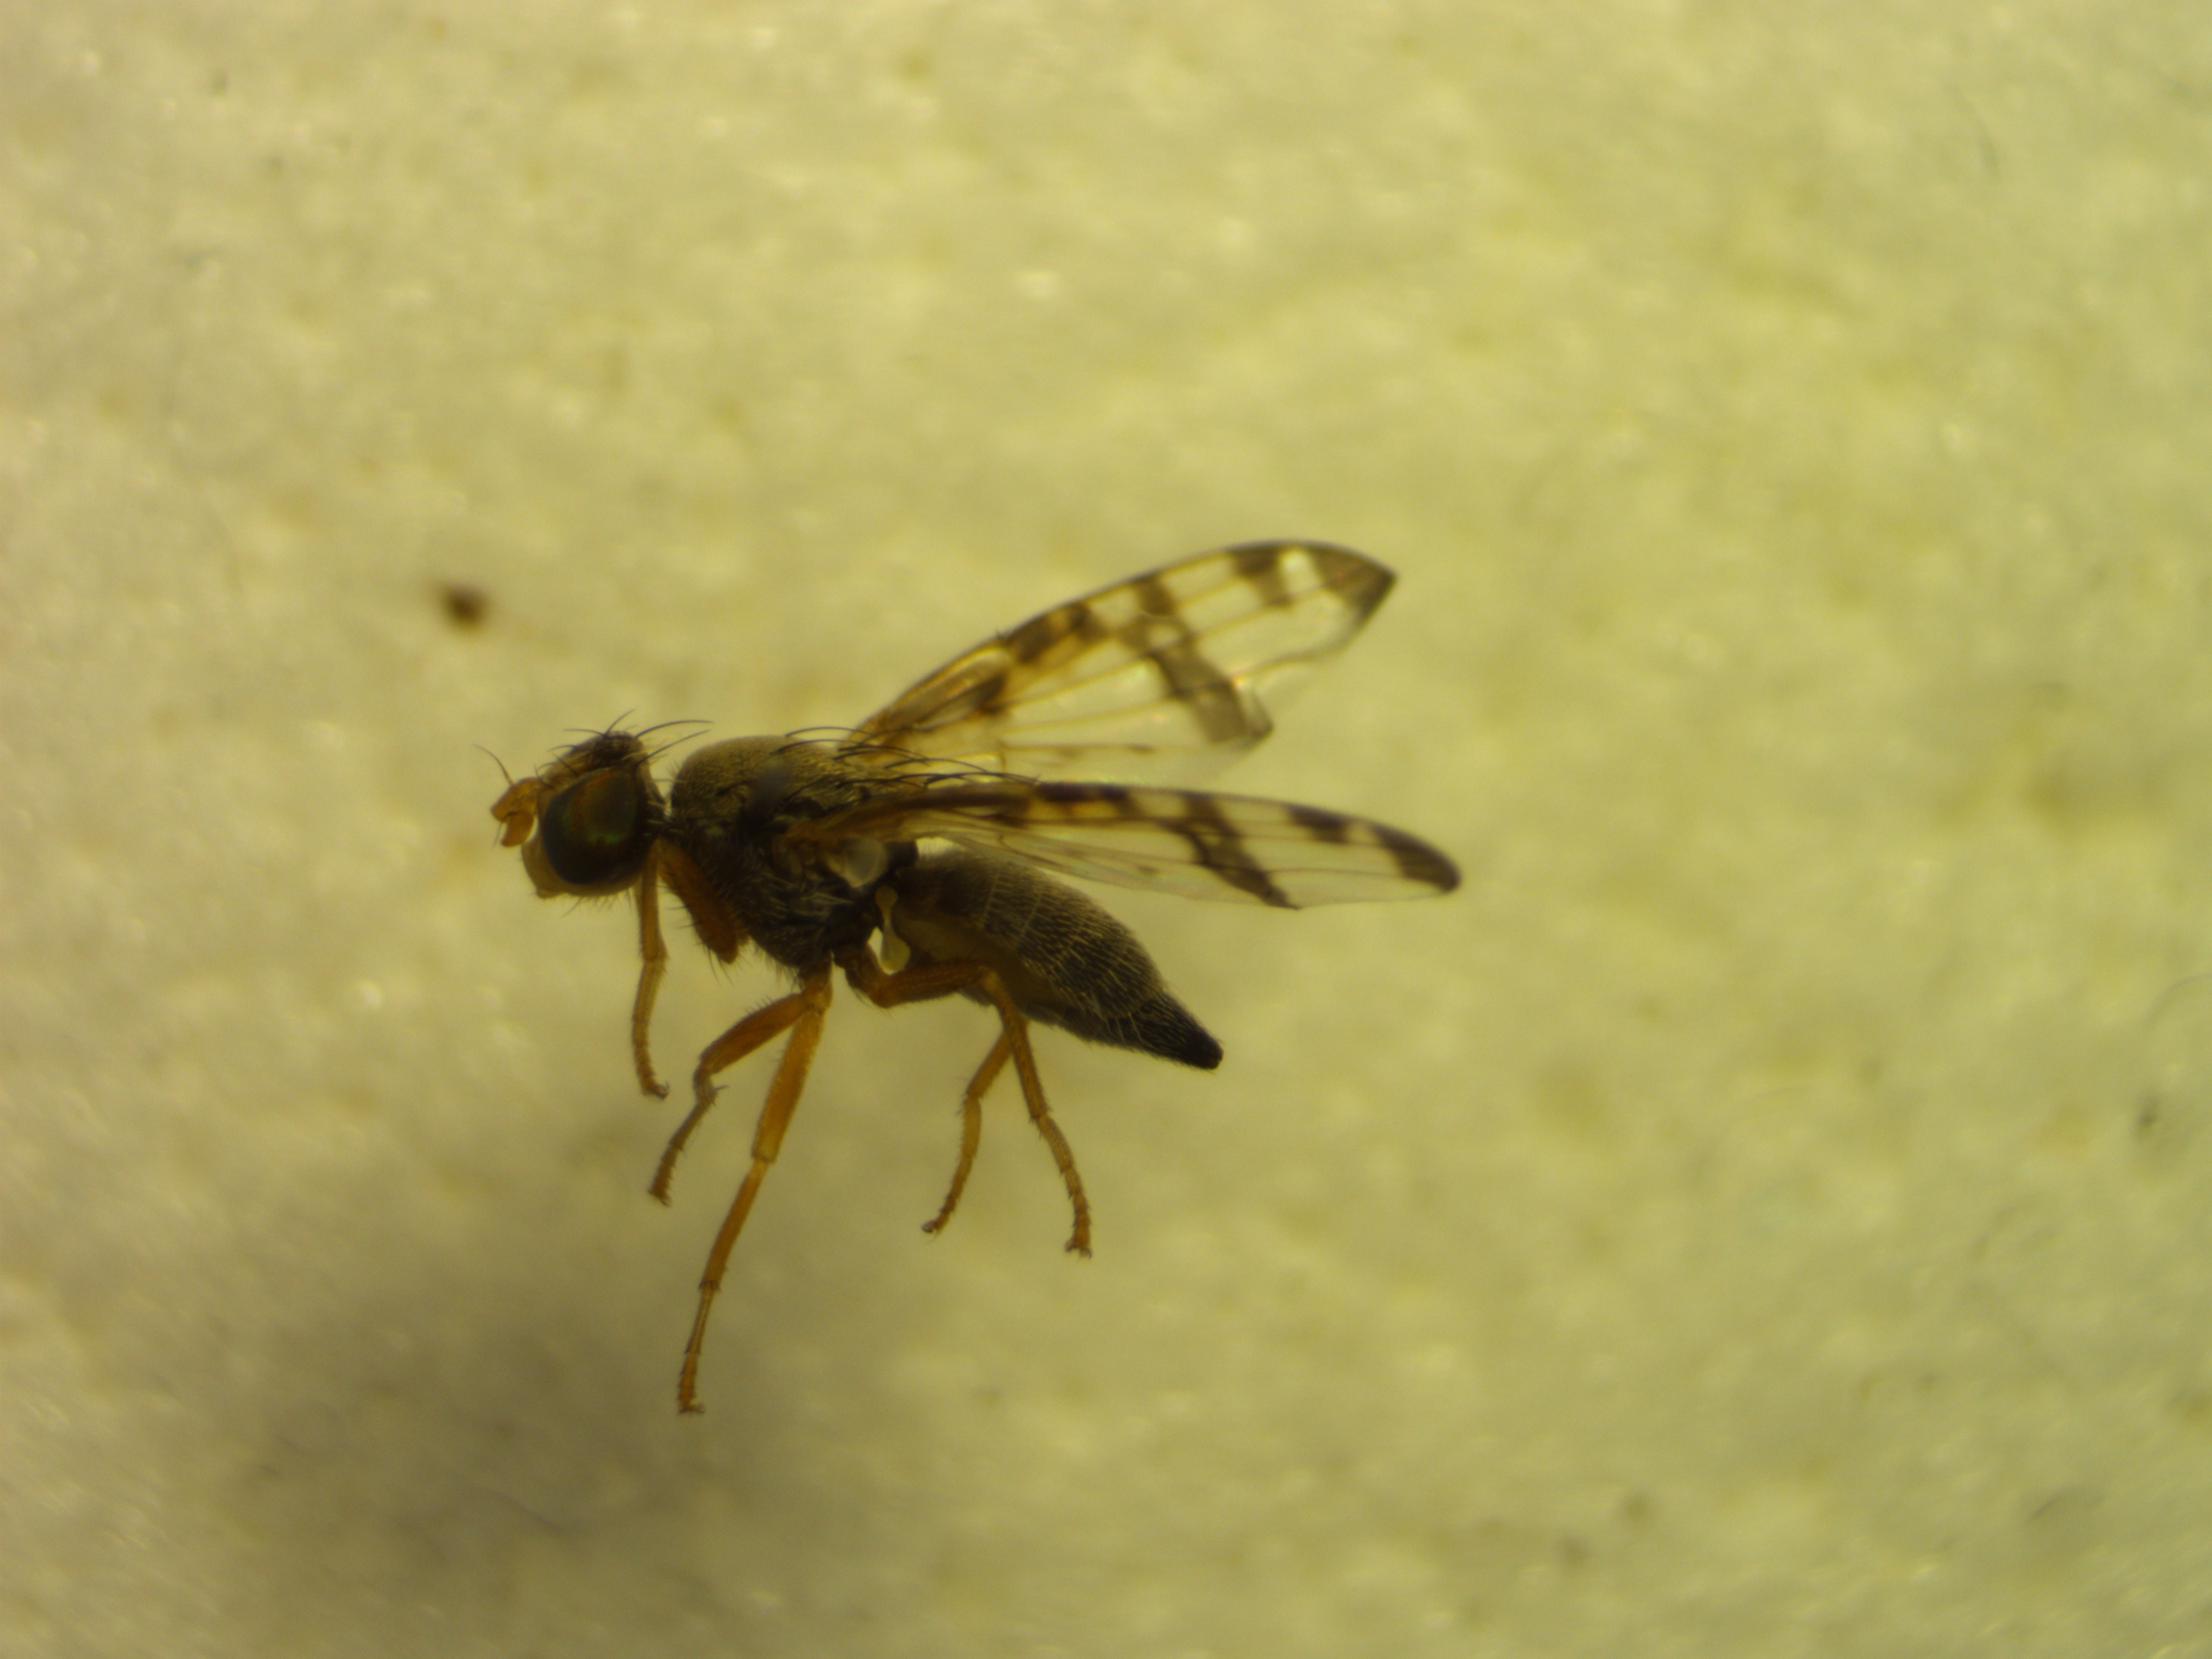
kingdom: Animalia
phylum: Arthropoda
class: Insecta
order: Diptera
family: Tephritidae
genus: Sphenella
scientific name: Sphenella marginata
